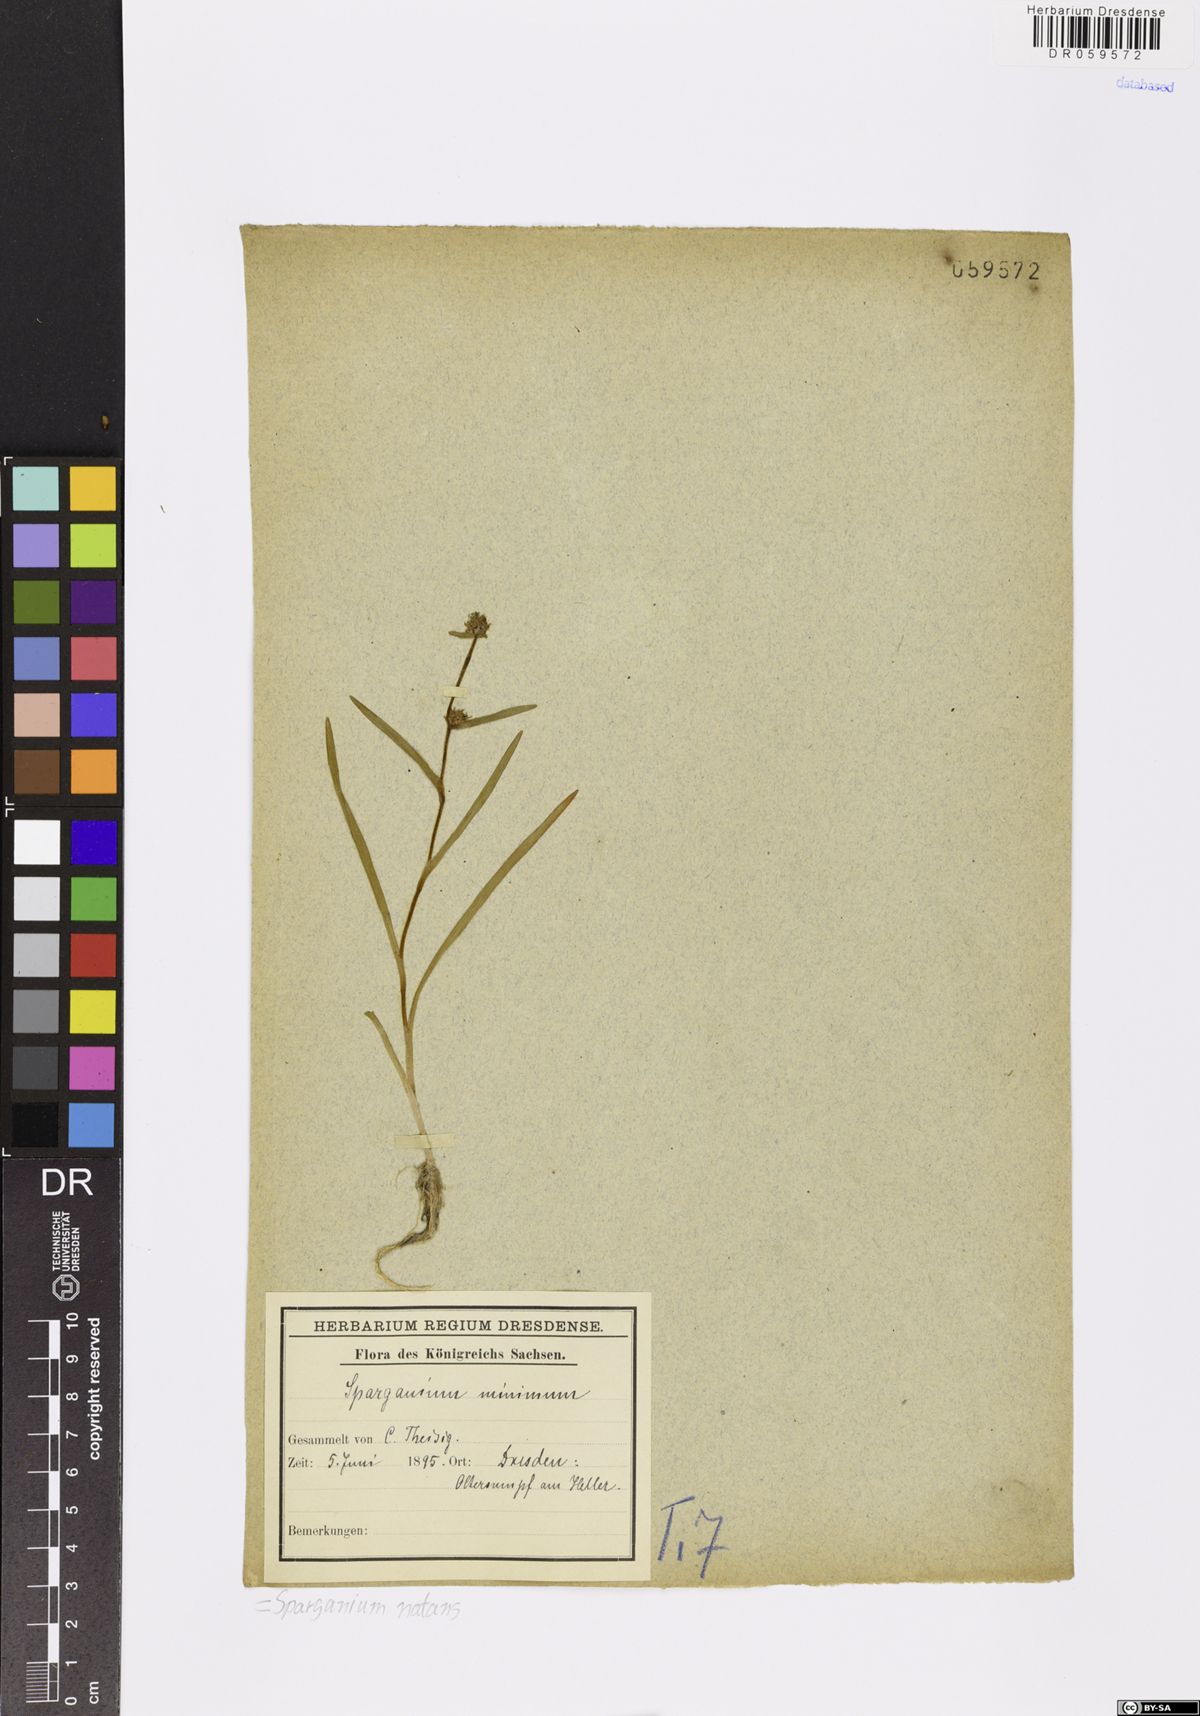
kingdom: Plantae
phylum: Tracheophyta
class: Liliopsida
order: Poales
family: Typhaceae
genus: Sparganium
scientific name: Sparganium natans
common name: Least bur-reed
